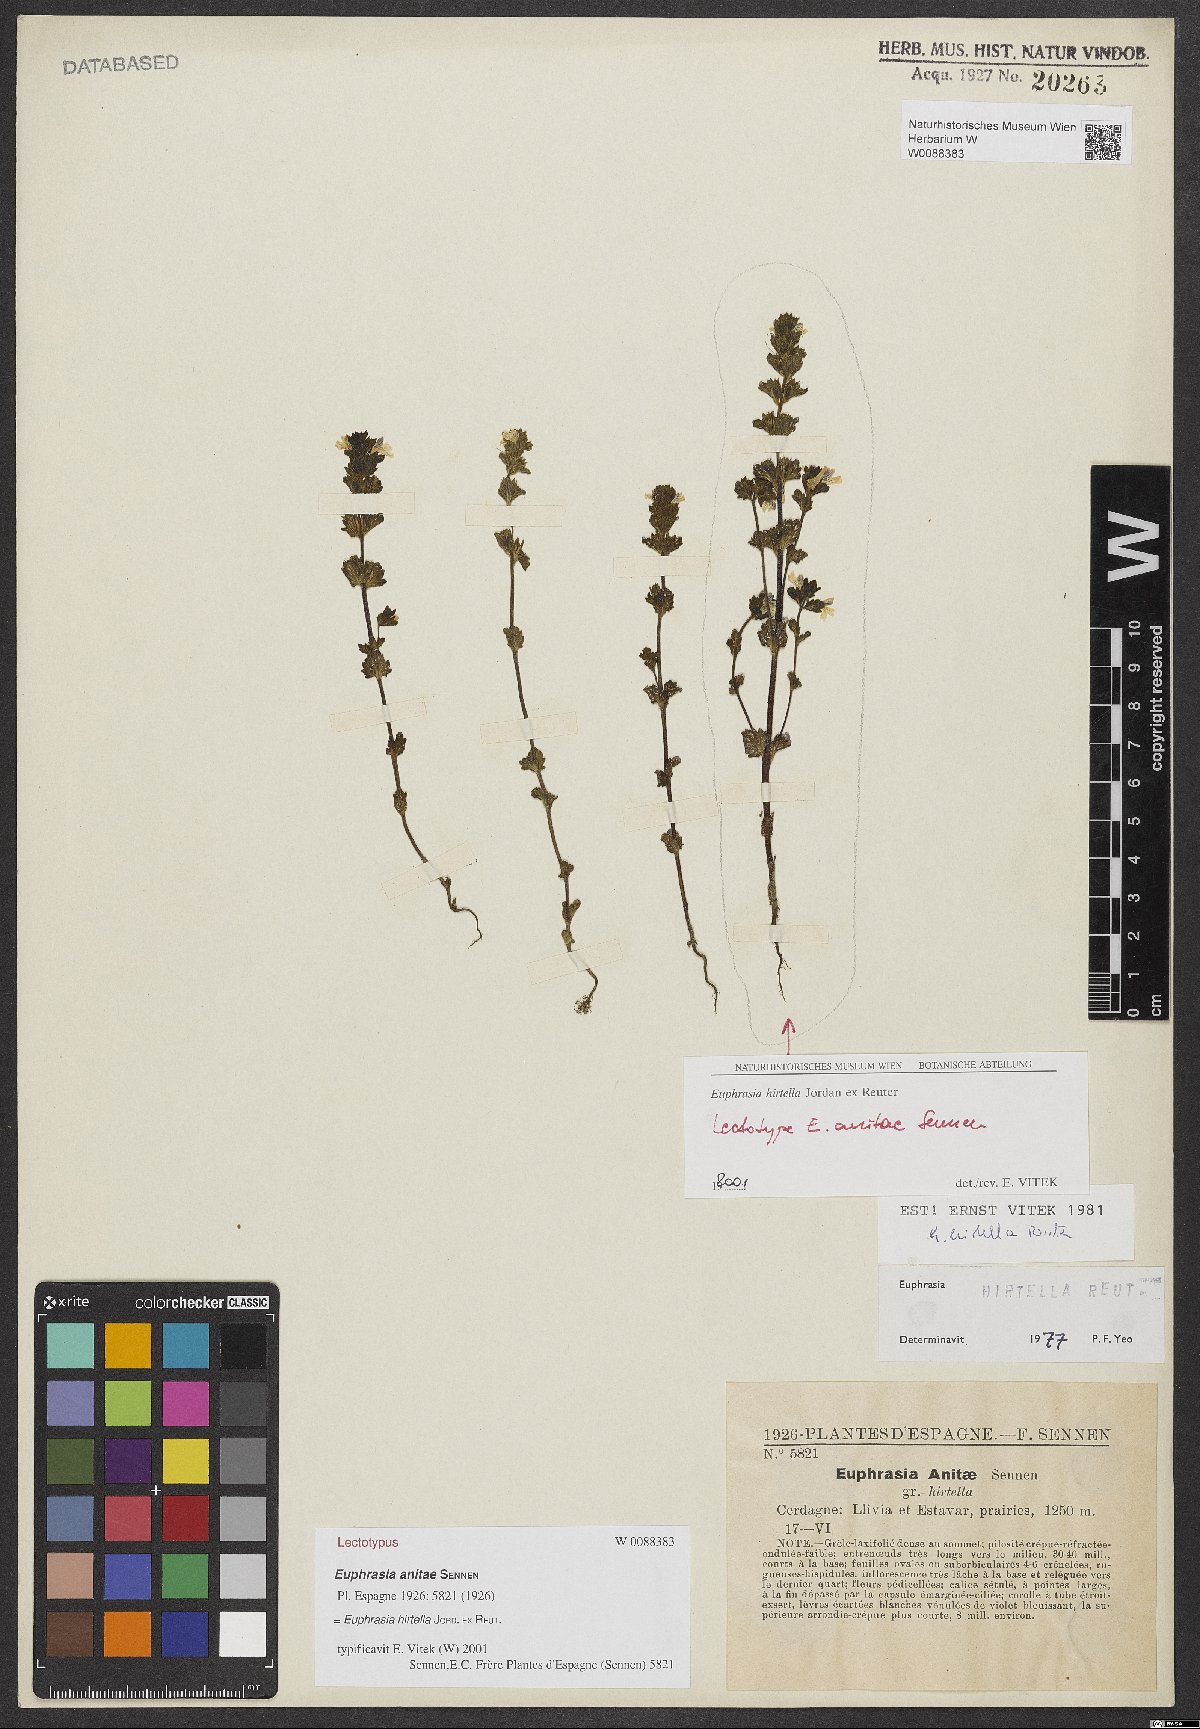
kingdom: Plantae
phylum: Tracheophyta
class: Magnoliopsida
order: Lamiales
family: Orobanchaceae
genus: Euphrasia
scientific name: Euphrasia anitae
